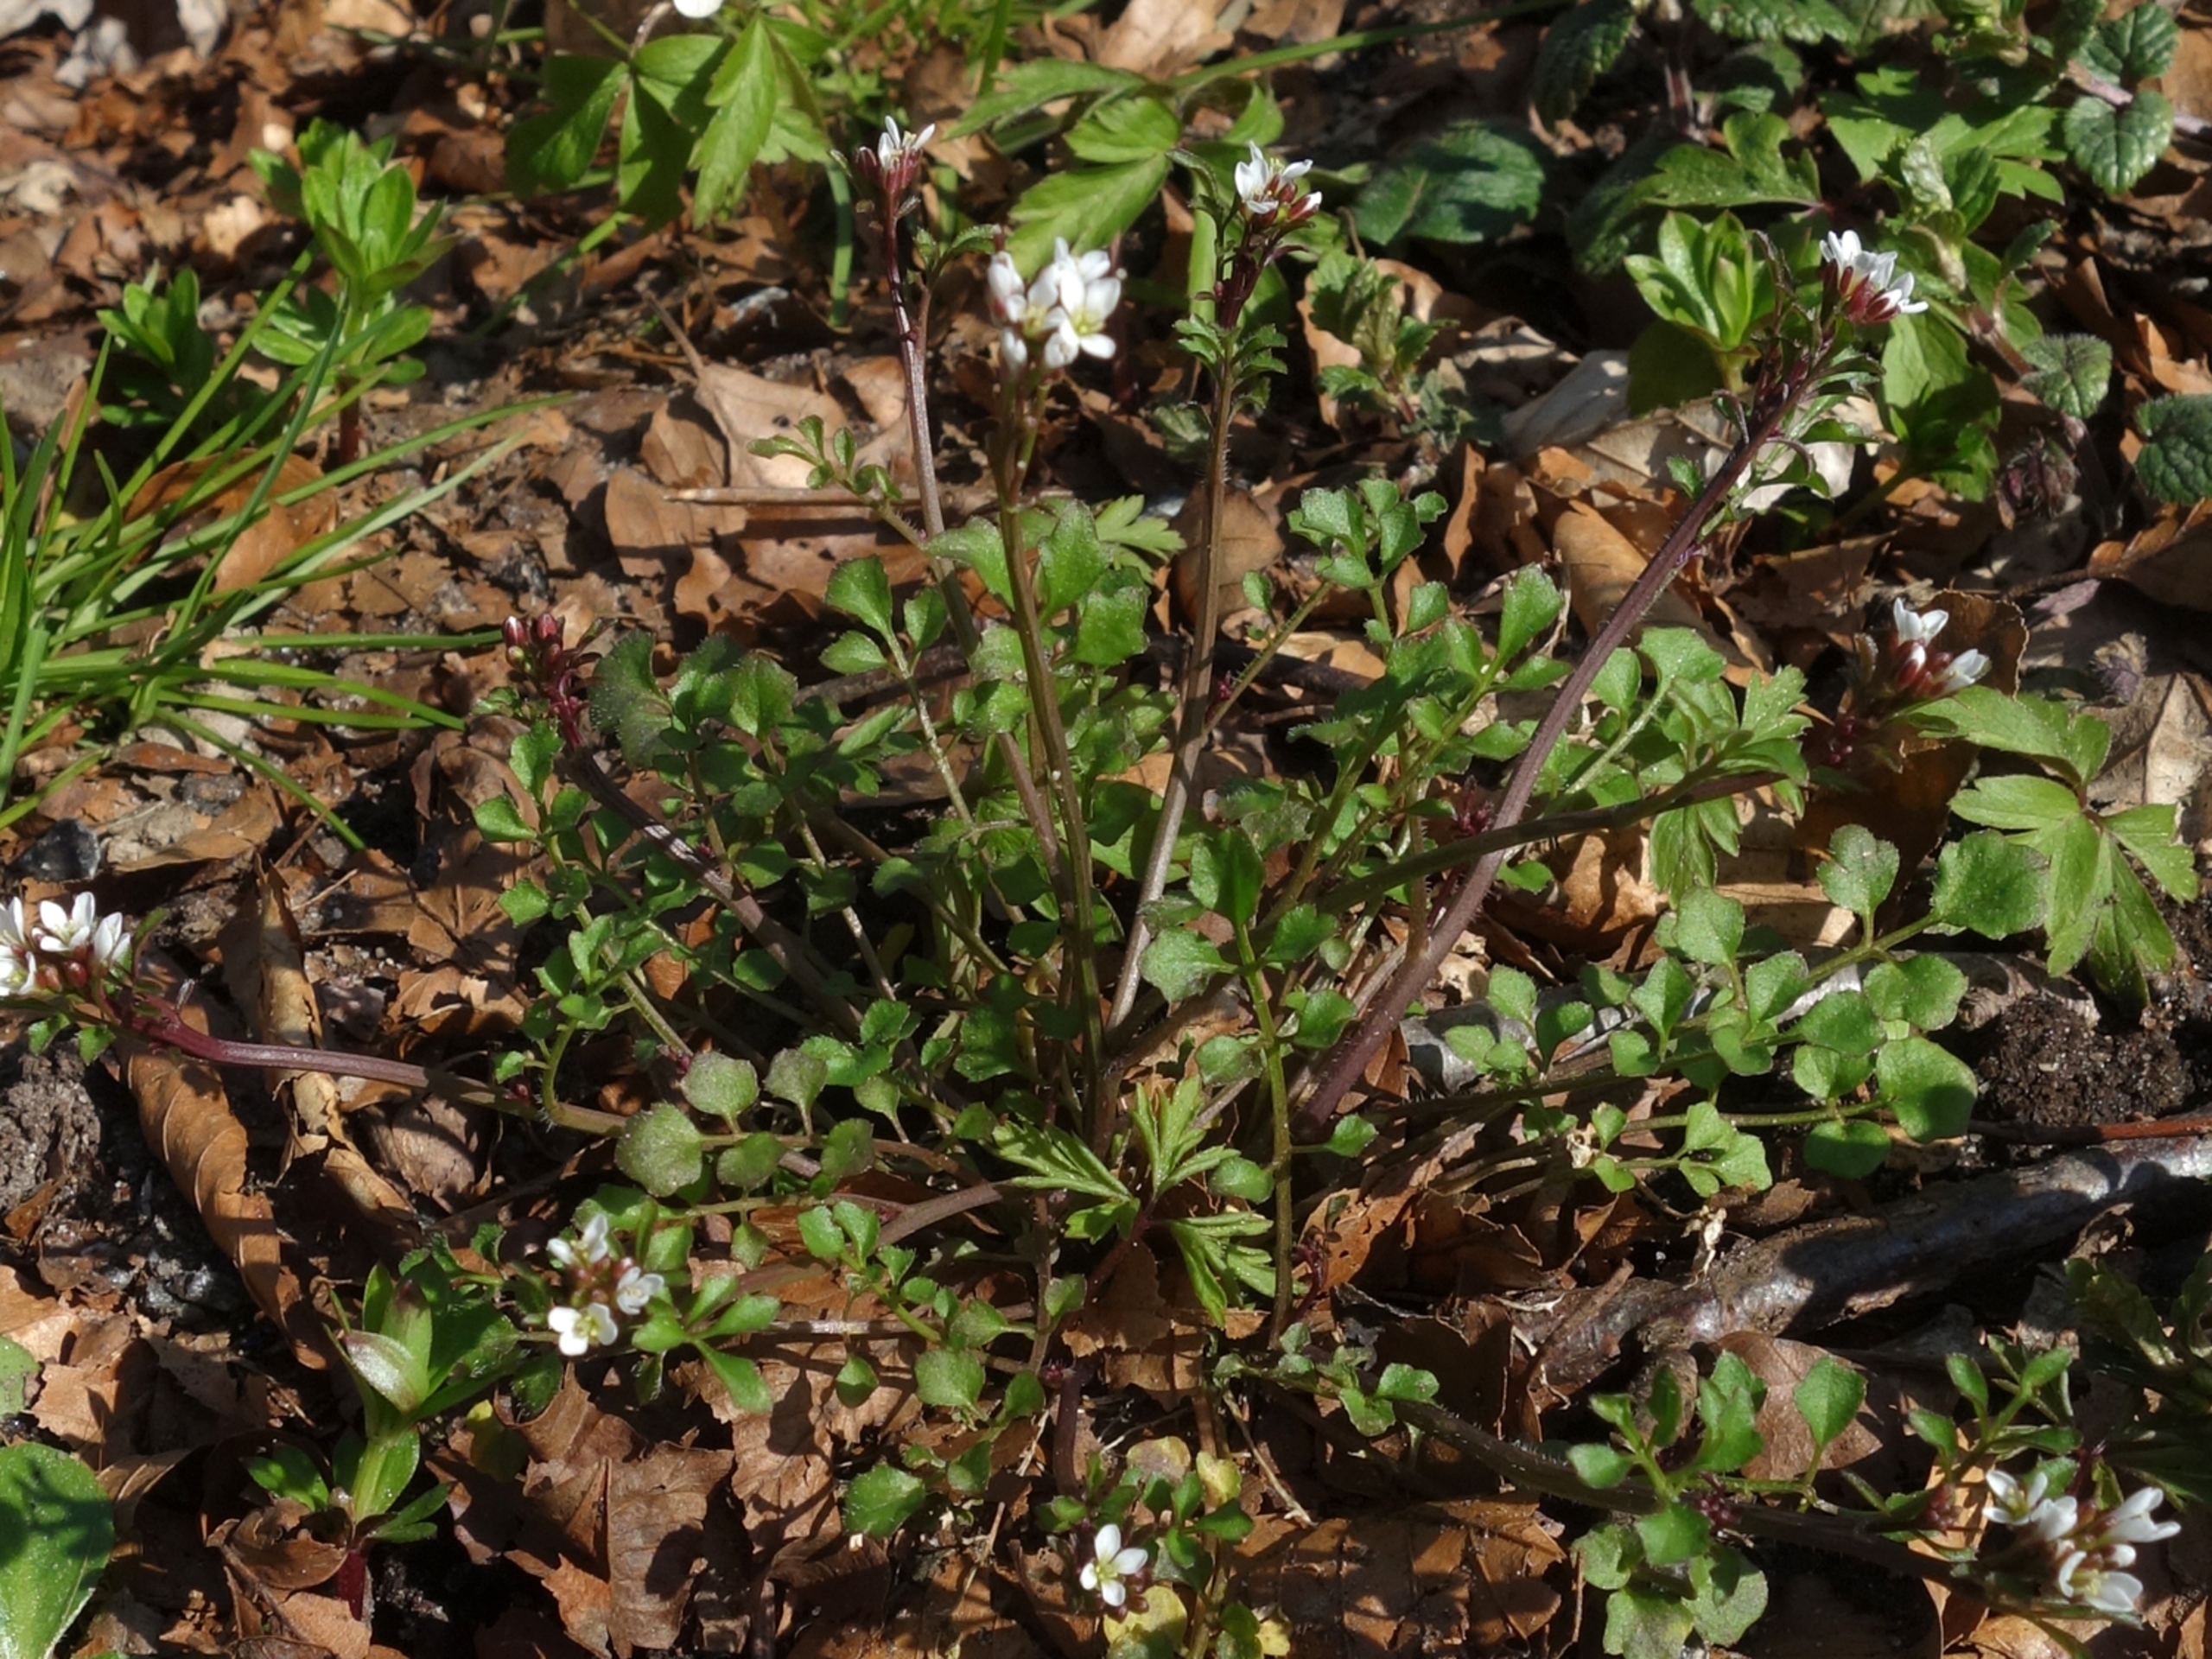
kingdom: Plantae
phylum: Tracheophyta
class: Magnoliopsida
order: Brassicales
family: Brassicaceae
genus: Cardamine
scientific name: Cardamine hirsuta
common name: Roset-springklap
